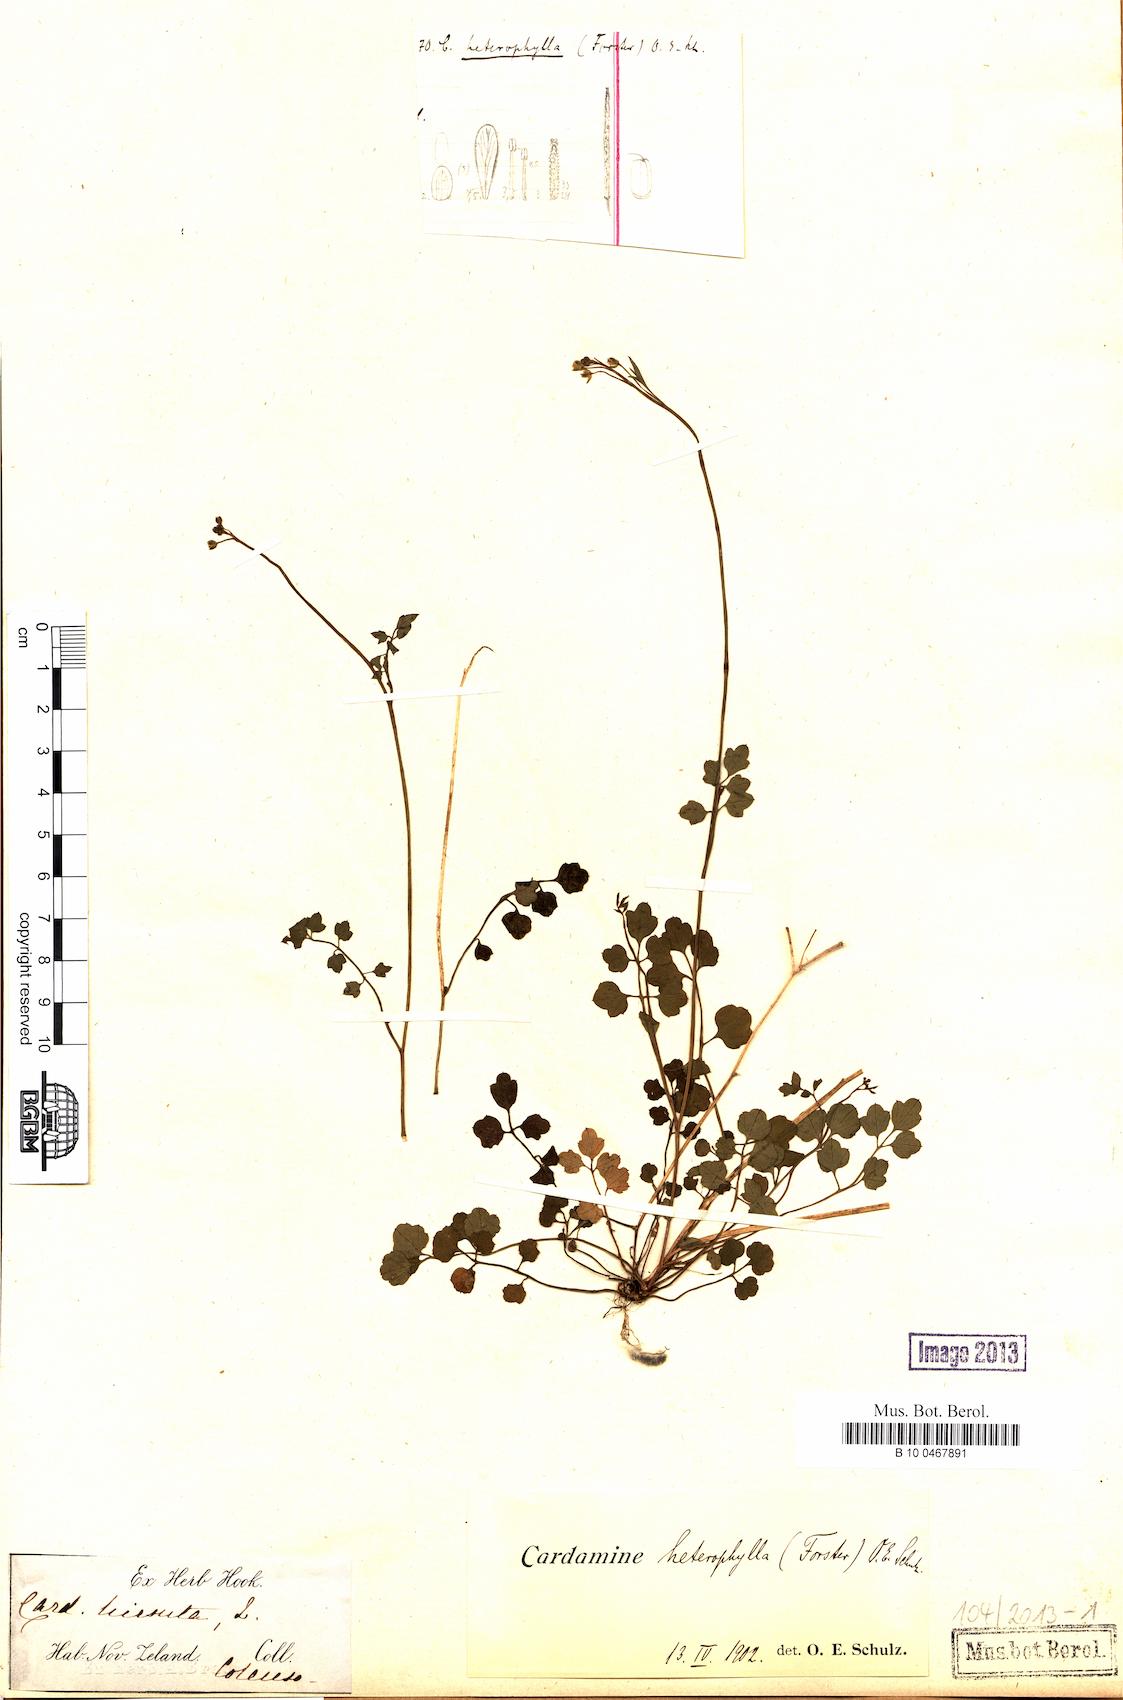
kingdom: Plantae
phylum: Tracheophyta
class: Magnoliopsida
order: Brassicales
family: Brassicaceae
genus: Cardamine
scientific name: Cardamine debilis
